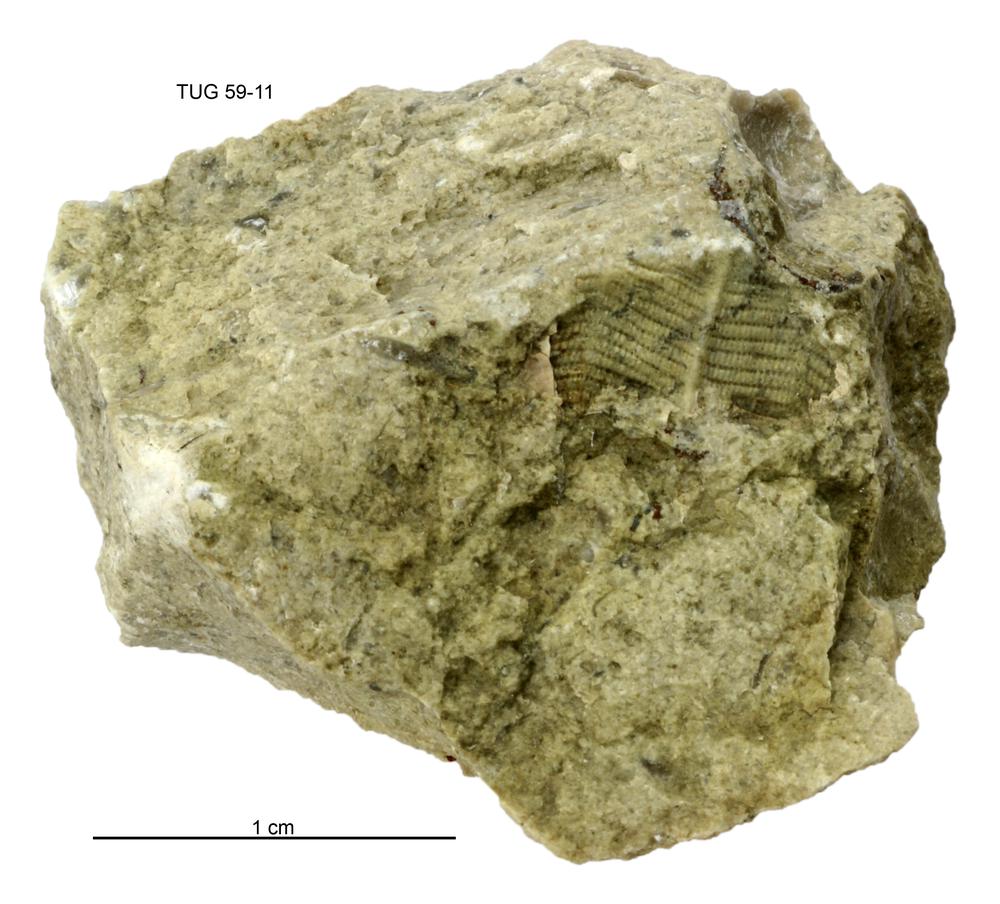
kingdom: Animalia
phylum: Cnidaria
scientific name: Cnidaria
